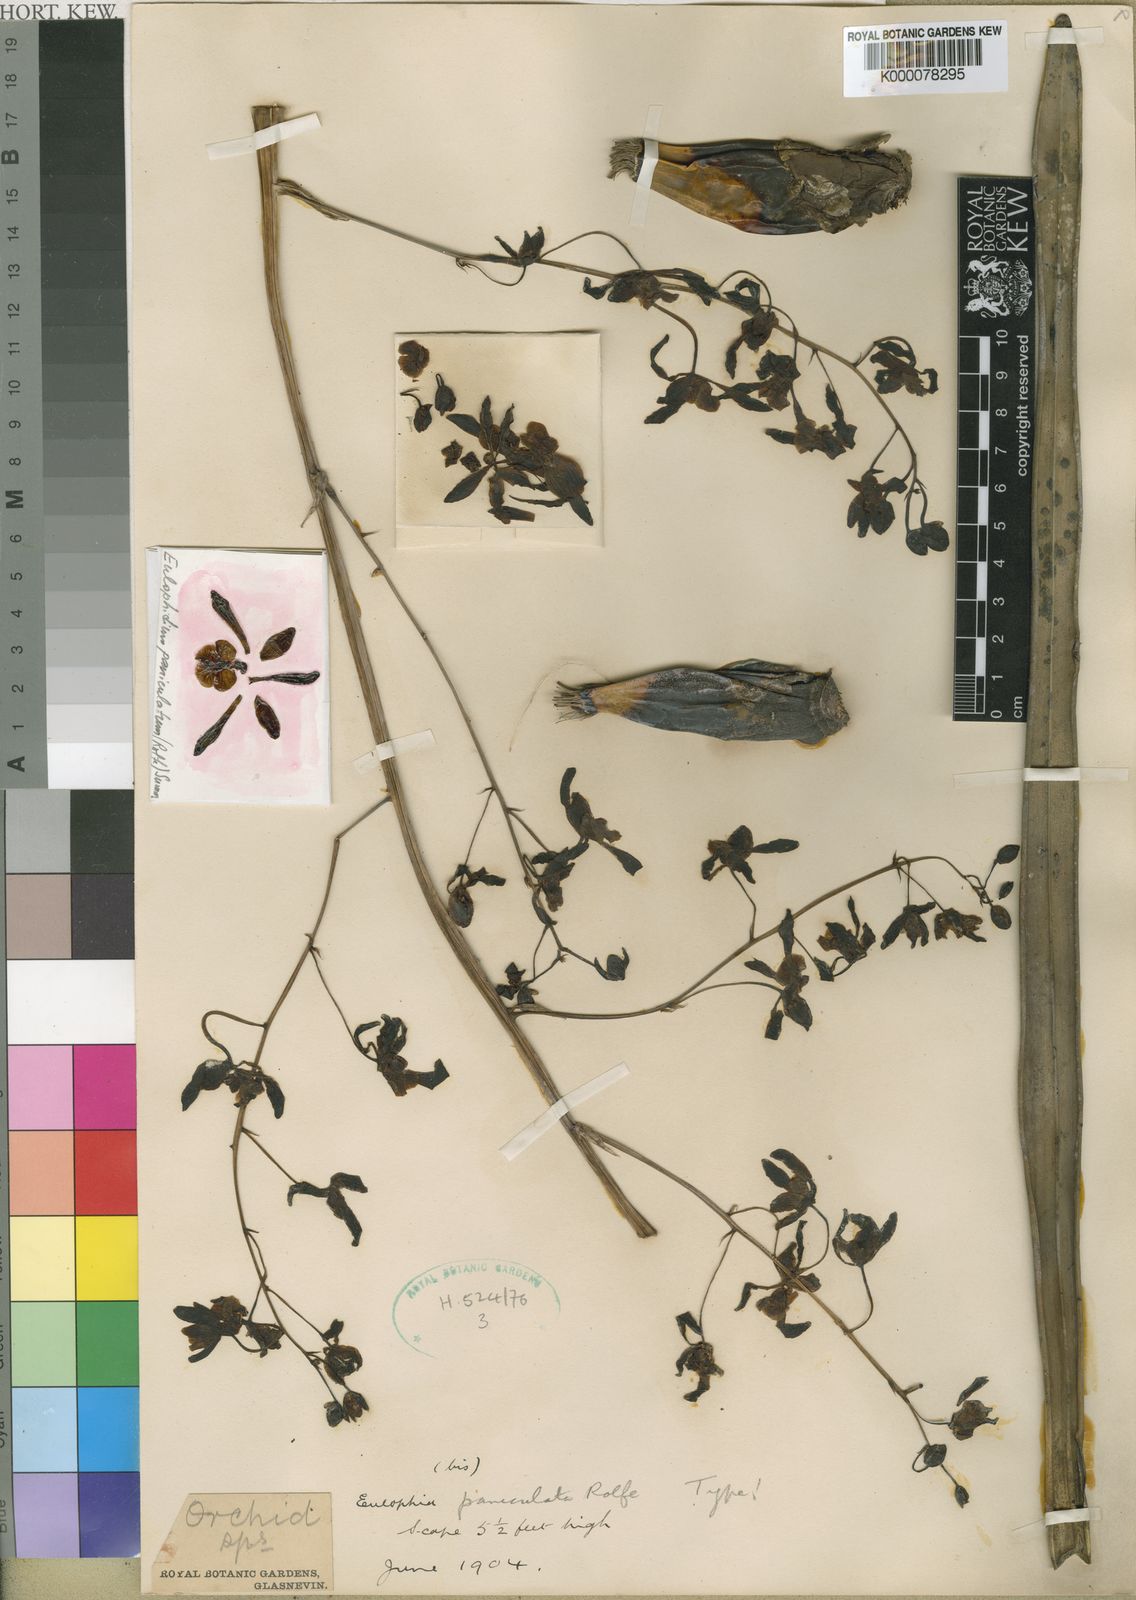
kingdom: Plantae
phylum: Tracheophyta
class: Liliopsida
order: Asparagales
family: Orchidaceae
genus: Eulophia
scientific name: Eulophia calcarata
